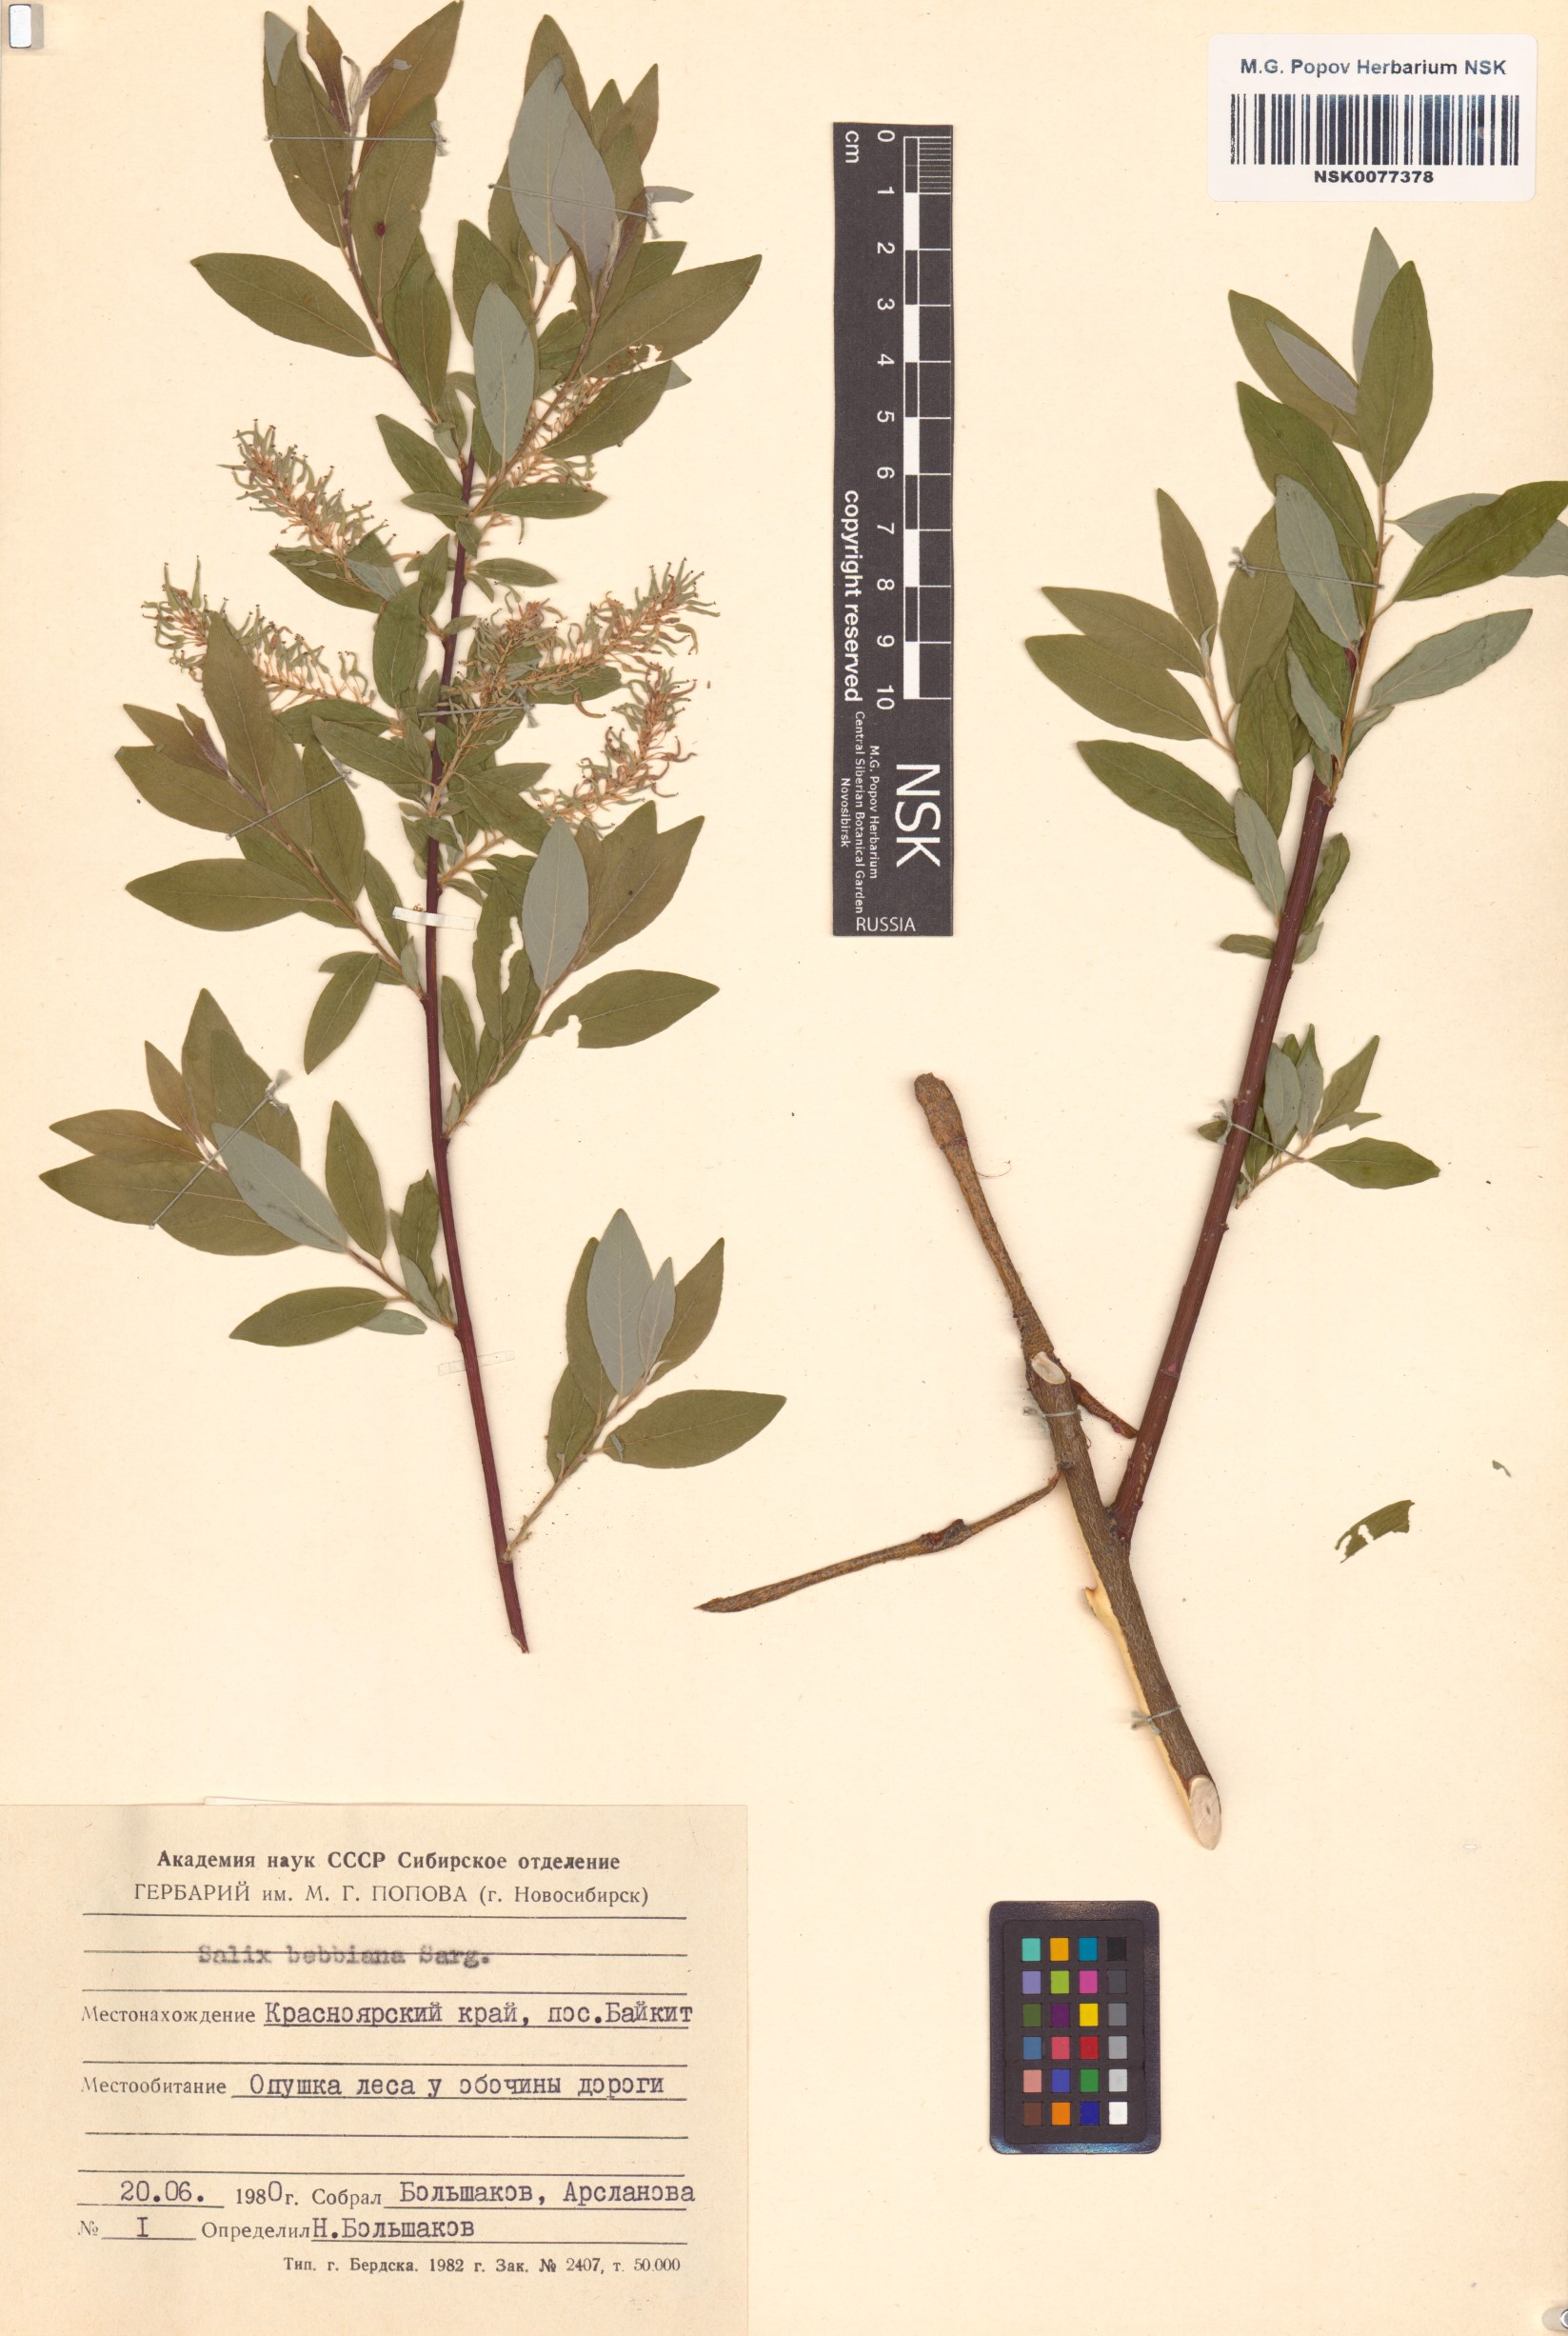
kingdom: Plantae
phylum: Tracheophyta
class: Magnoliopsida
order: Malpighiales
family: Salicaceae
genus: Salix
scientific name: Salix bebbiana
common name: Bebb's willow
